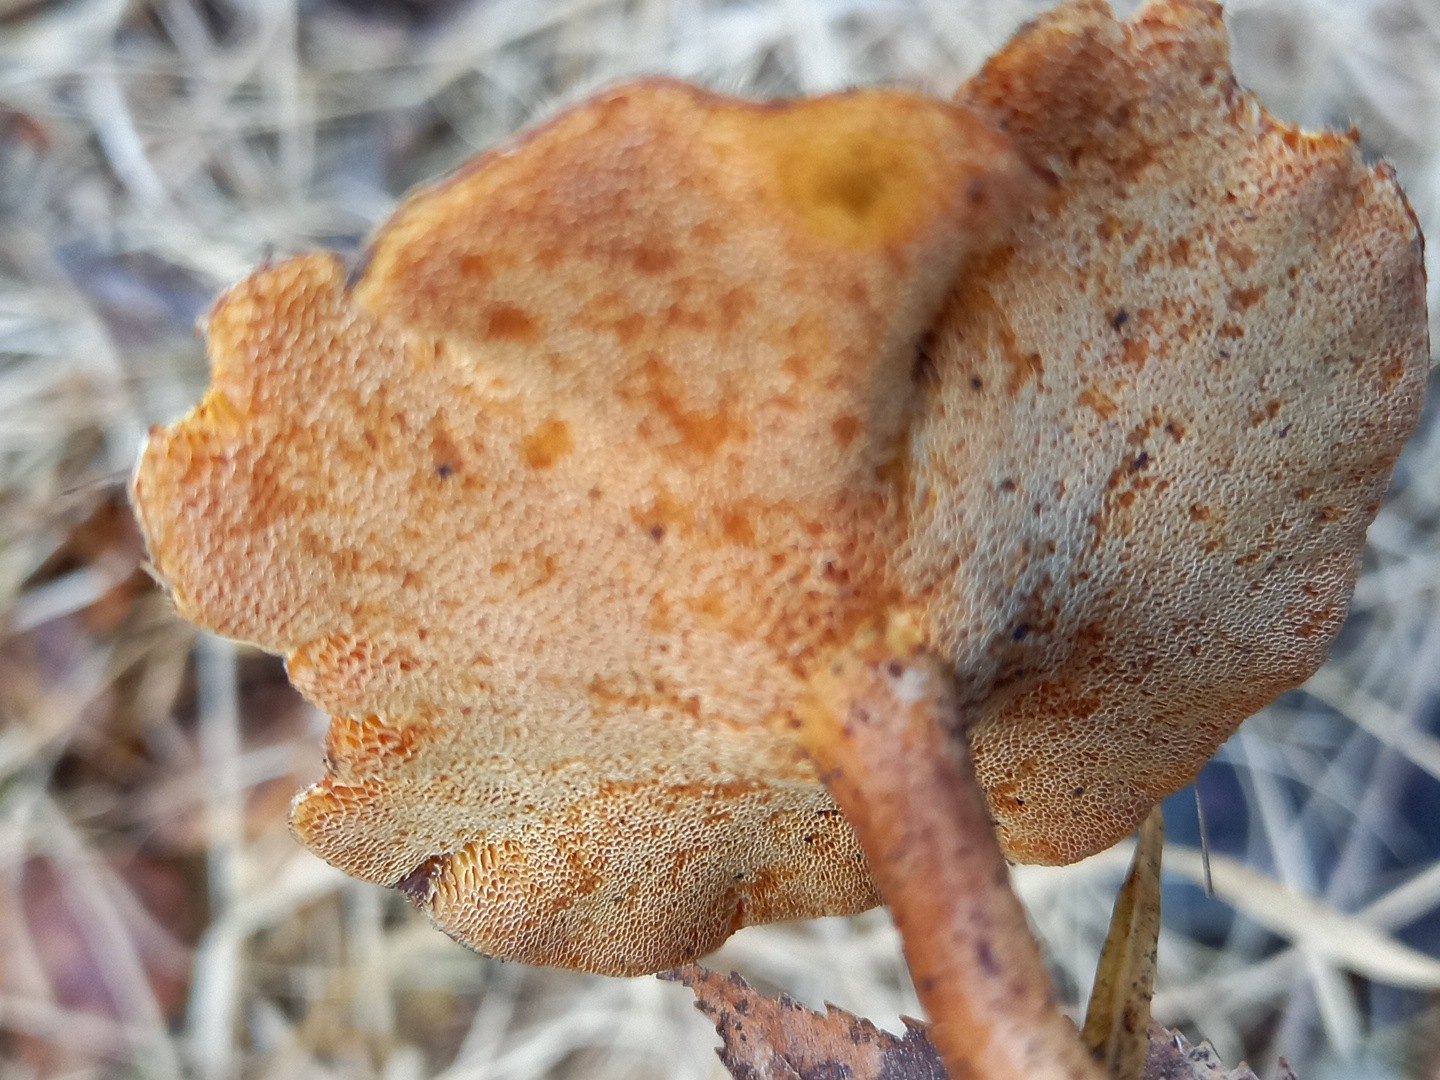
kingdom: Fungi
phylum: Basidiomycota
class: Agaricomycetes
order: Polyporales
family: Polyporaceae
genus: Lentinus
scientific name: Lentinus brumalis
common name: vinter-stilkporesvamp
